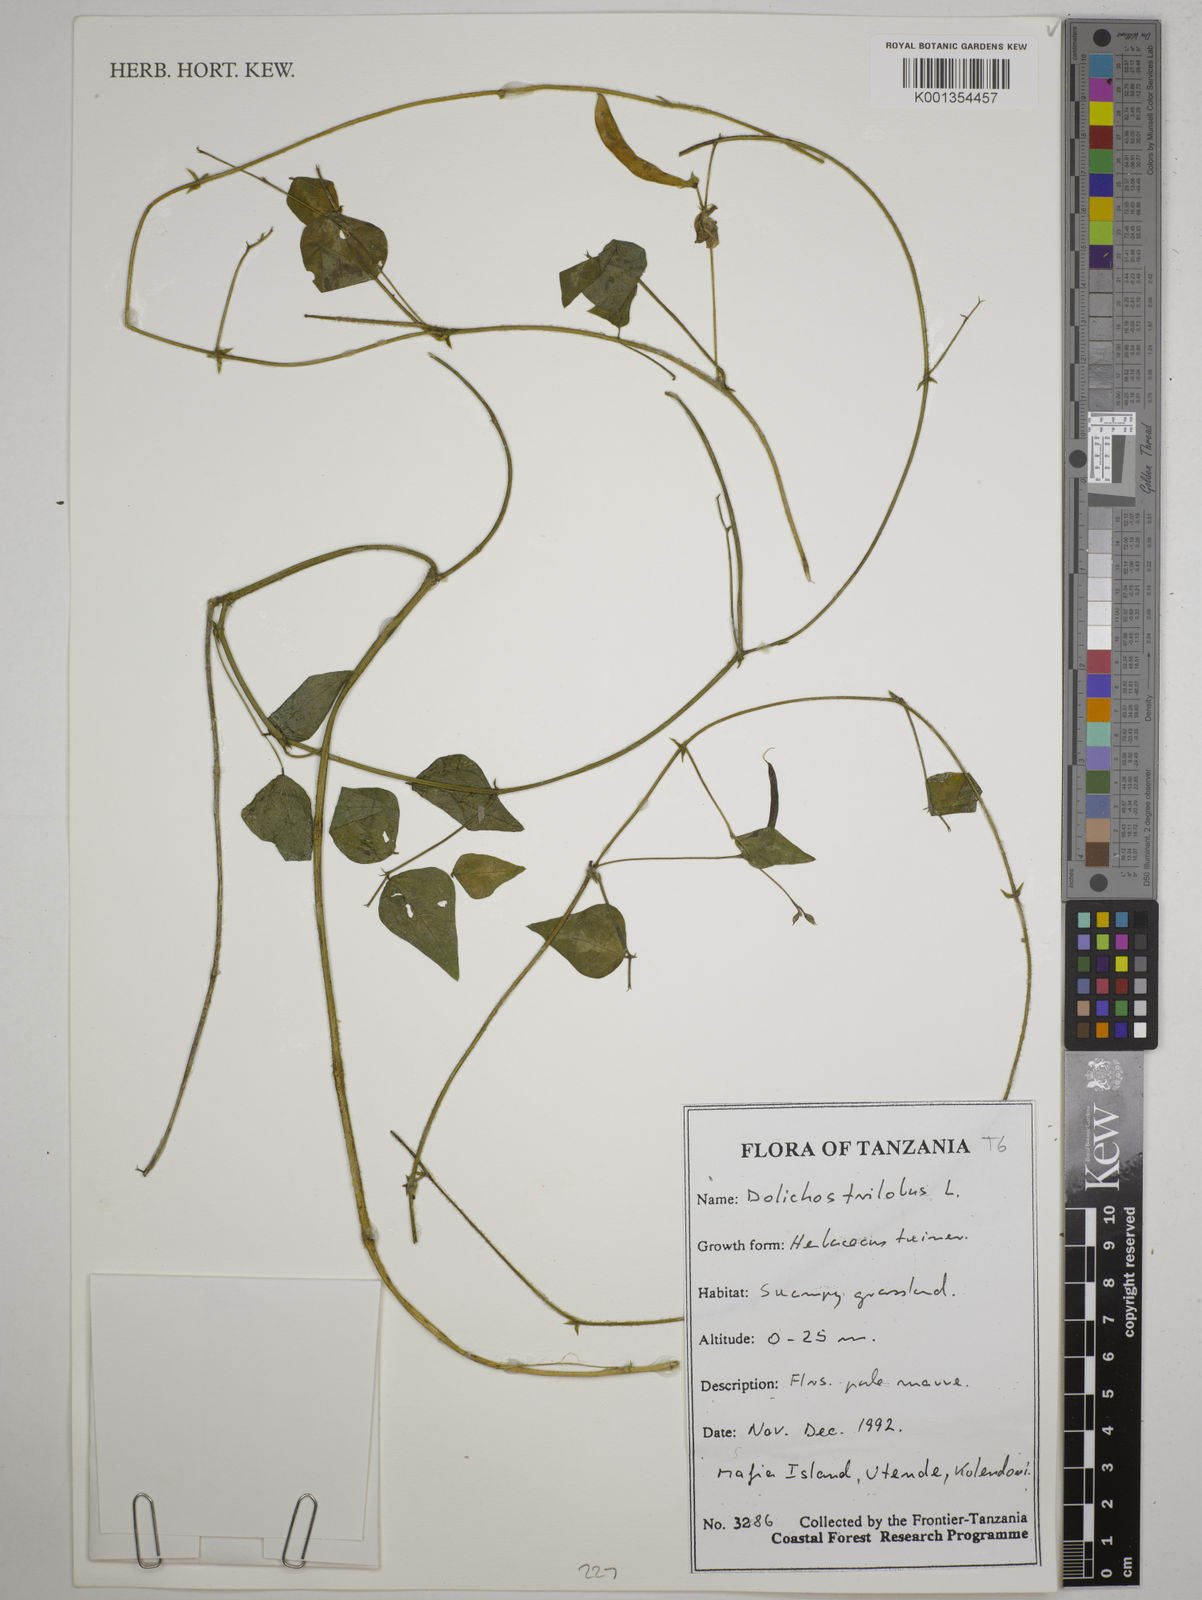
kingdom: Plantae
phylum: Tracheophyta
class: Magnoliopsida
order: Fabales
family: Fabaceae
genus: Dolichos
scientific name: Dolichos
